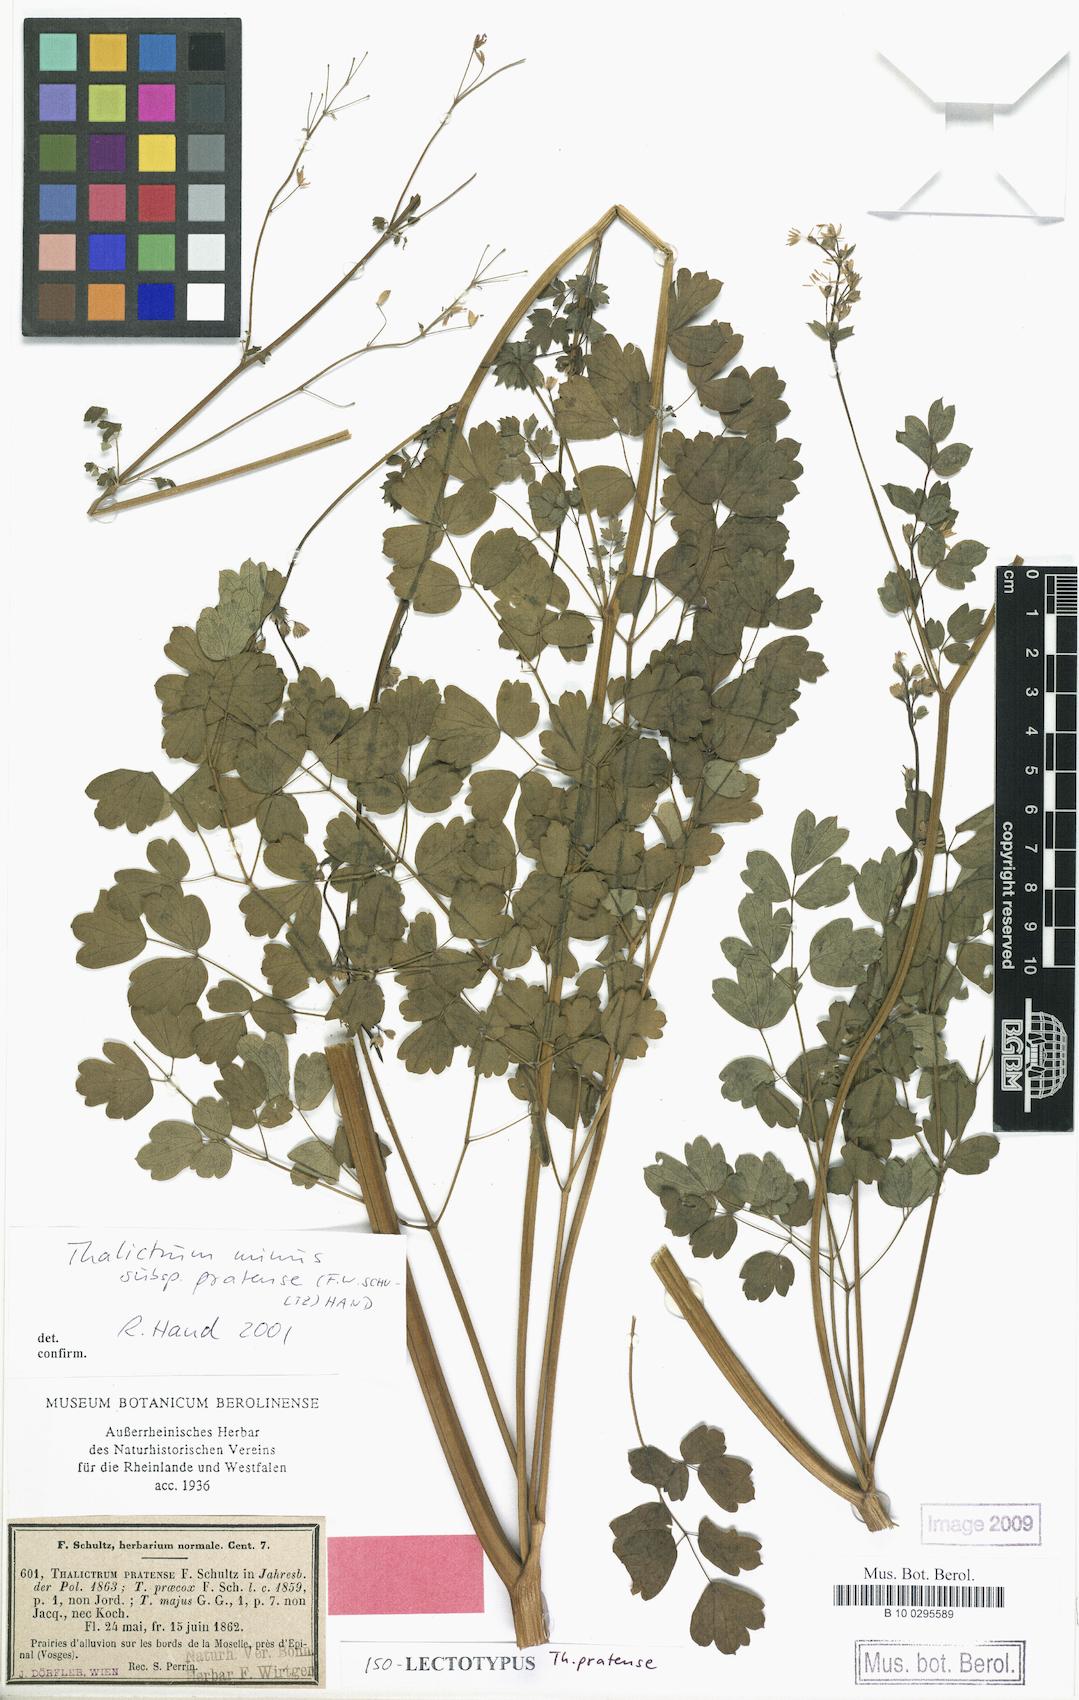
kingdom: Plantae
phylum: Tracheophyta
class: Magnoliopsida
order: Ranunculales
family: Ranunculaceae
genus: Thalictrum
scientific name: Thalictrum minus
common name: Lesser meadow-rue
